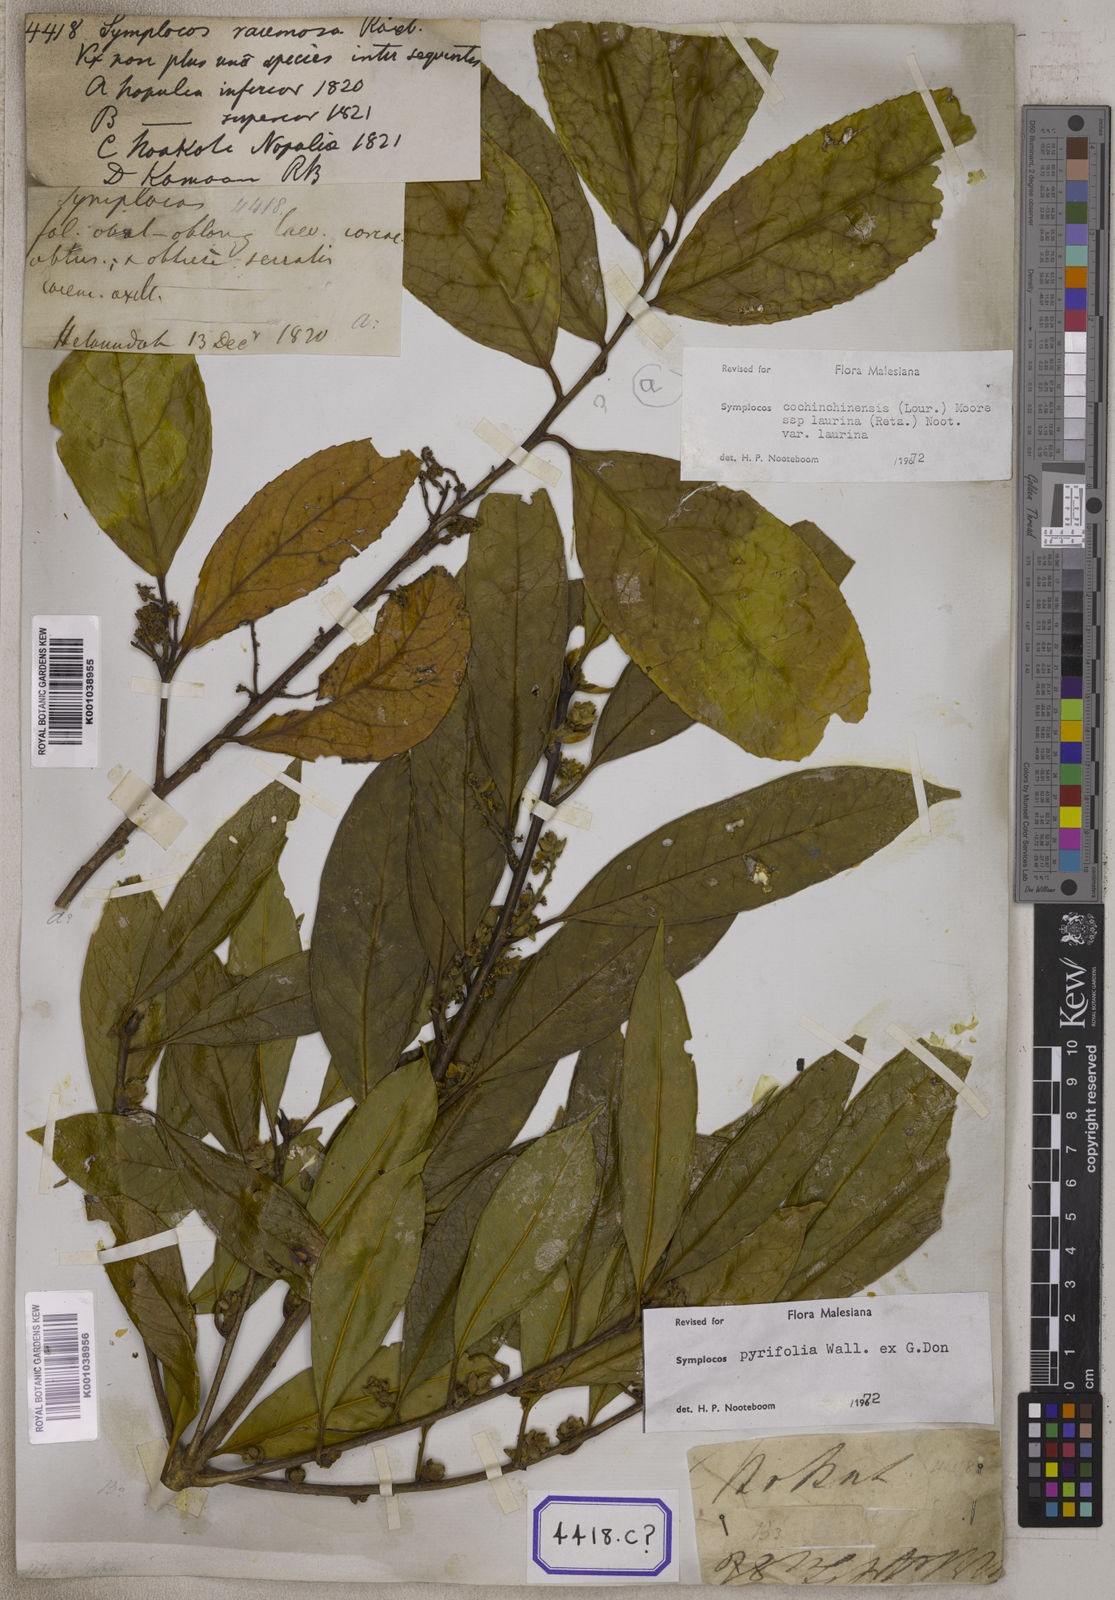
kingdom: Plantae
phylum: Tracheophyta
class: Magnoliopsida
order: Ericales
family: Symplocaceae
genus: Symplocos
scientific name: Symplocos racemosa
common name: Lodhtree
